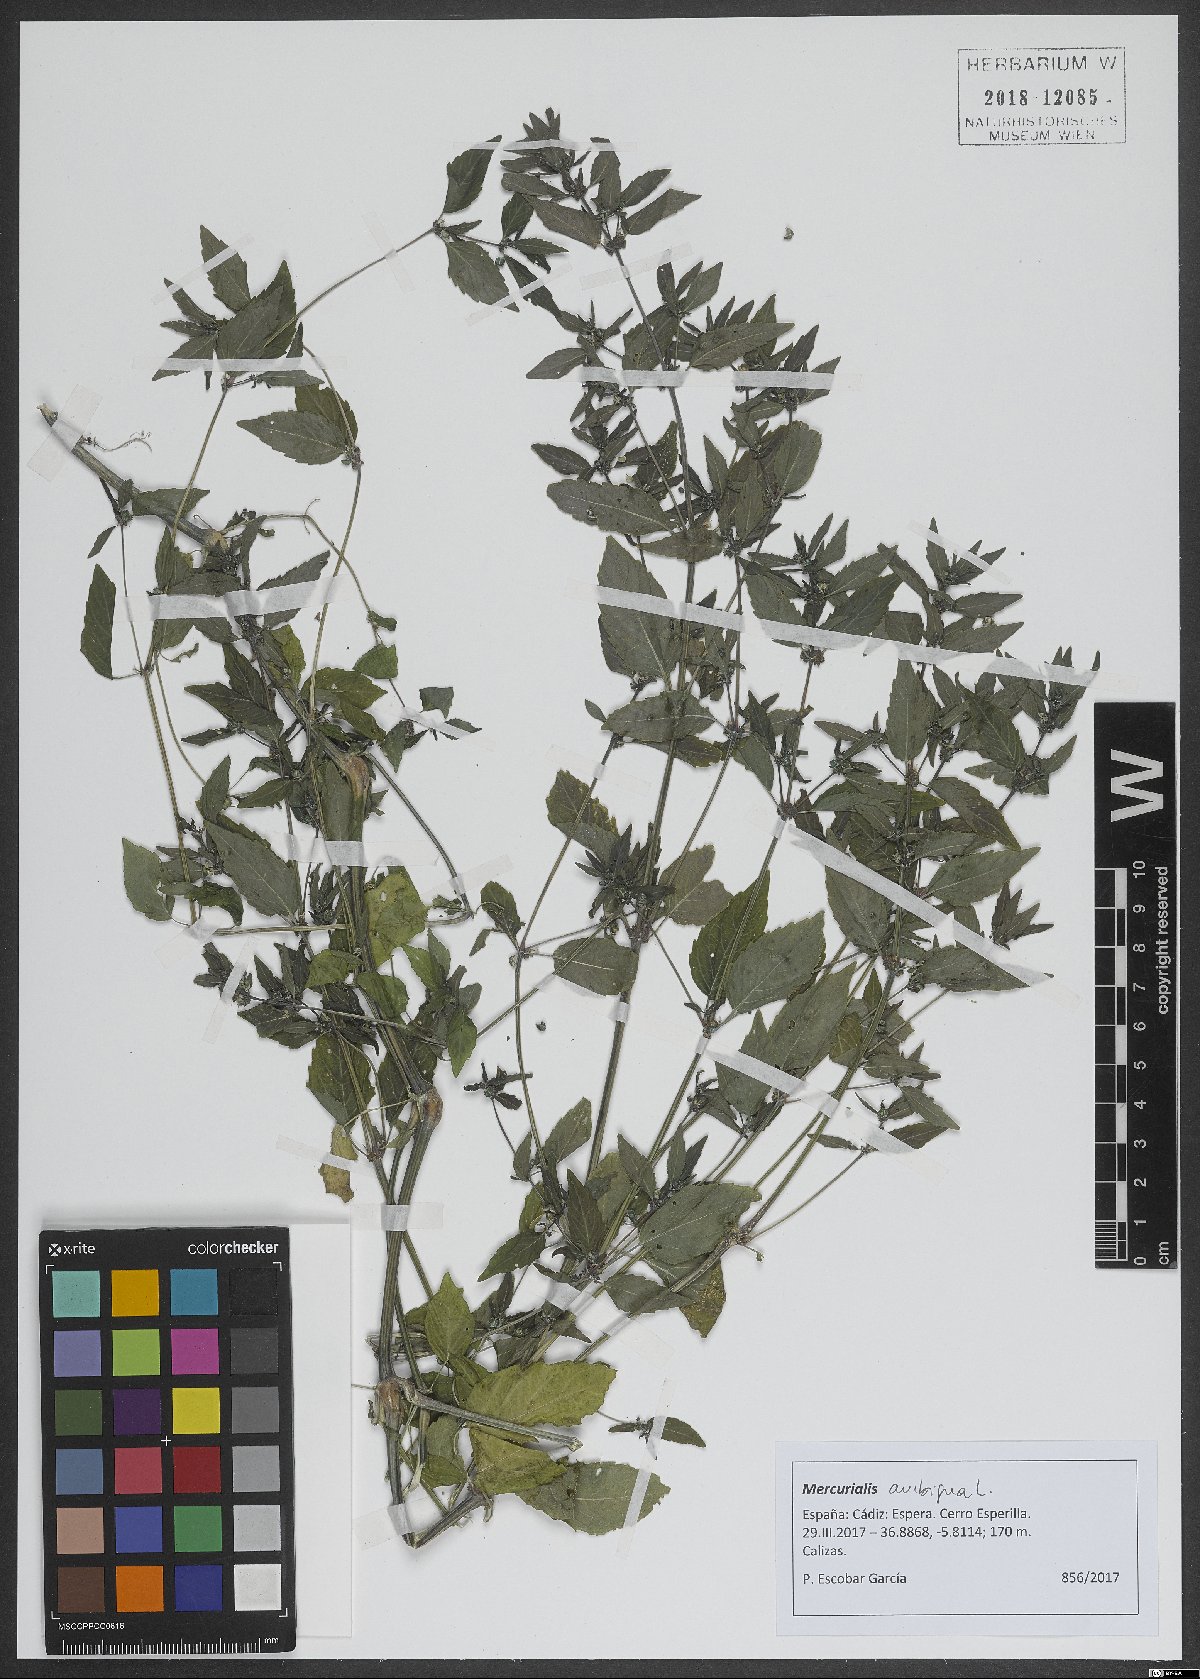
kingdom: Plantae
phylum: Tracheophyta
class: Magnoliopsida
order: Malpighiales
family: Euphorbiaceae
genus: Mercurialis
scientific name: Mercurialis annua
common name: Annual mercury
